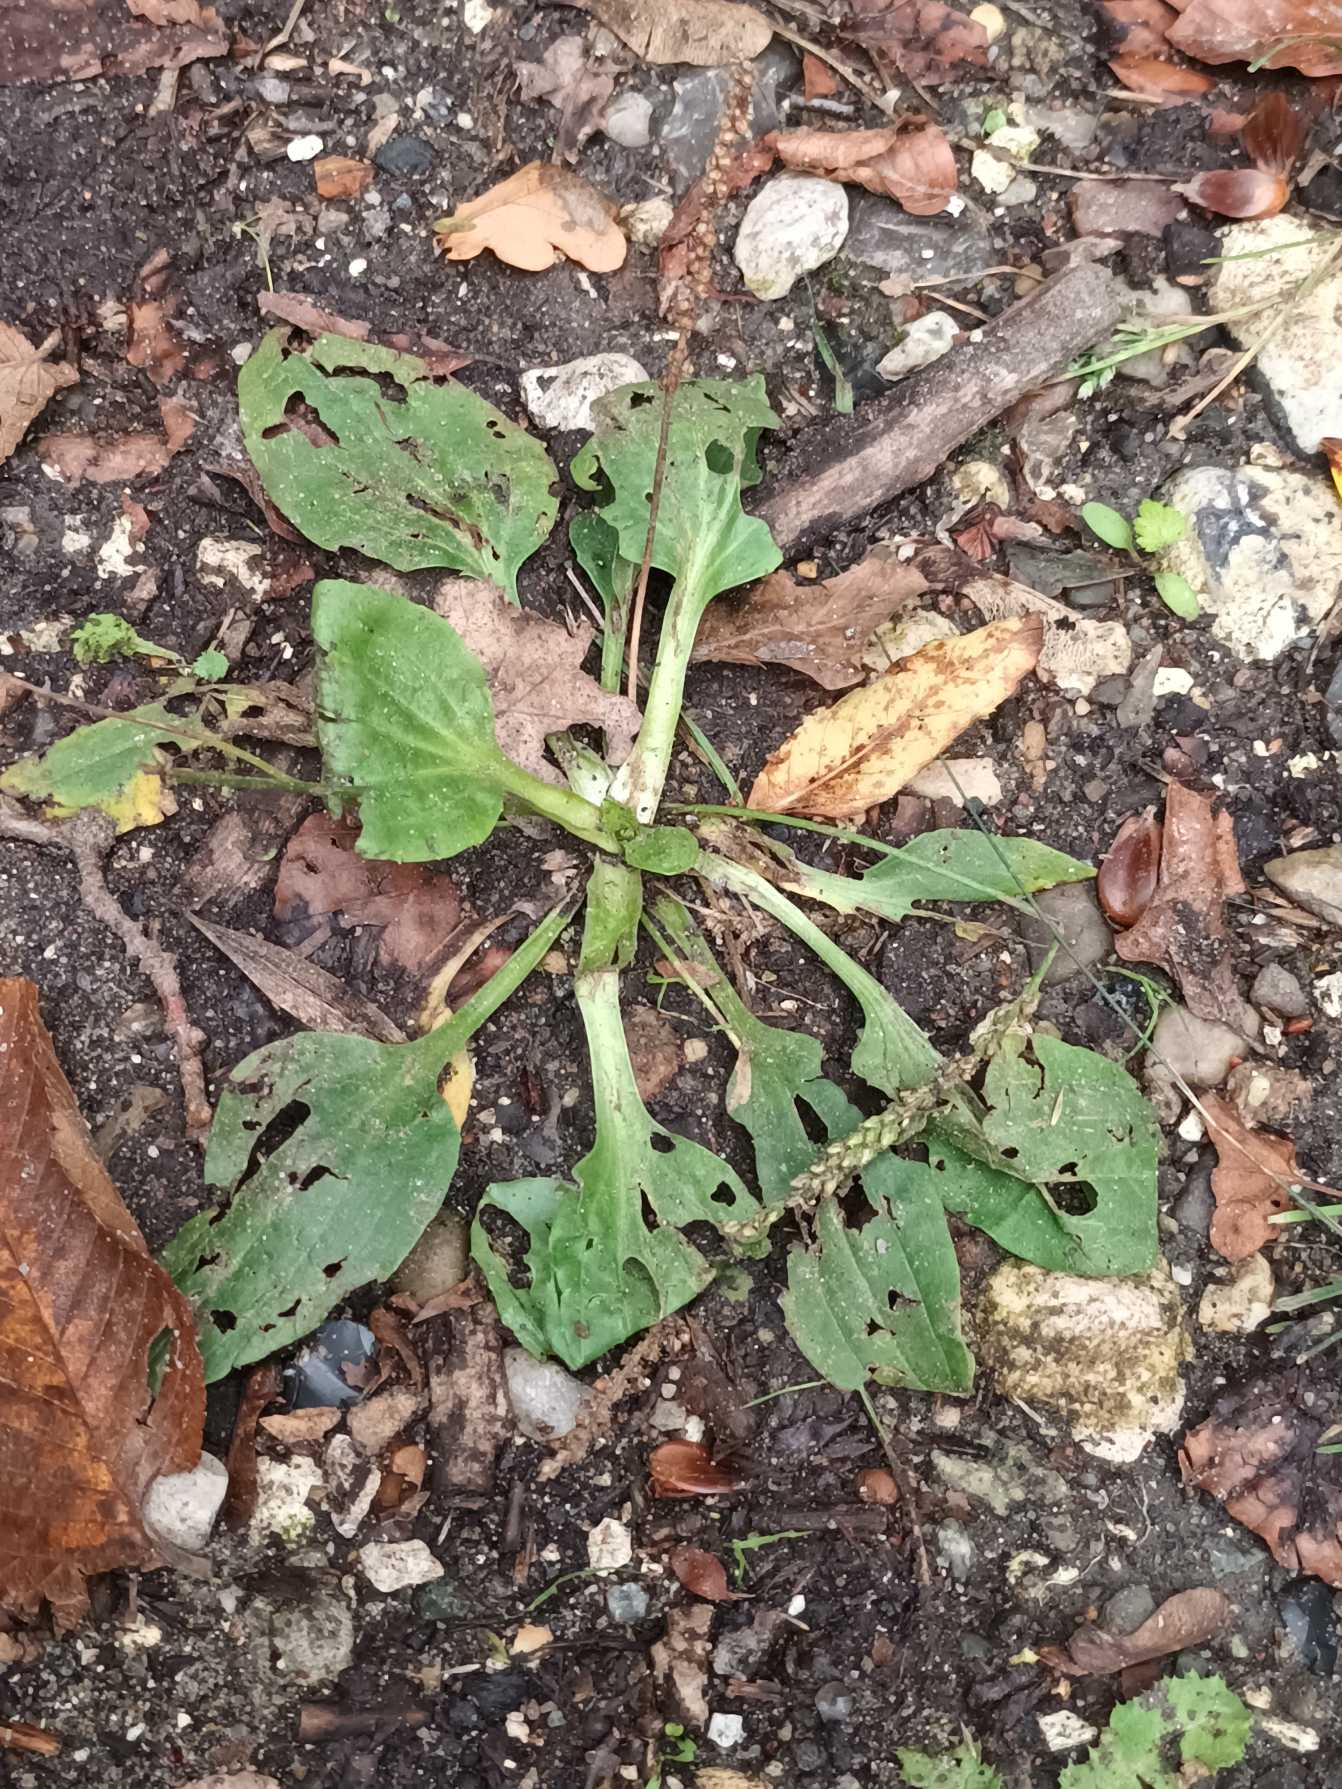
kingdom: Plantae
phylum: Tracheophyta
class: Magnoliopsida
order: Lamiales
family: Plantaginaceae
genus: Plantago
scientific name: Plantago major
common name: Glat vejbred
